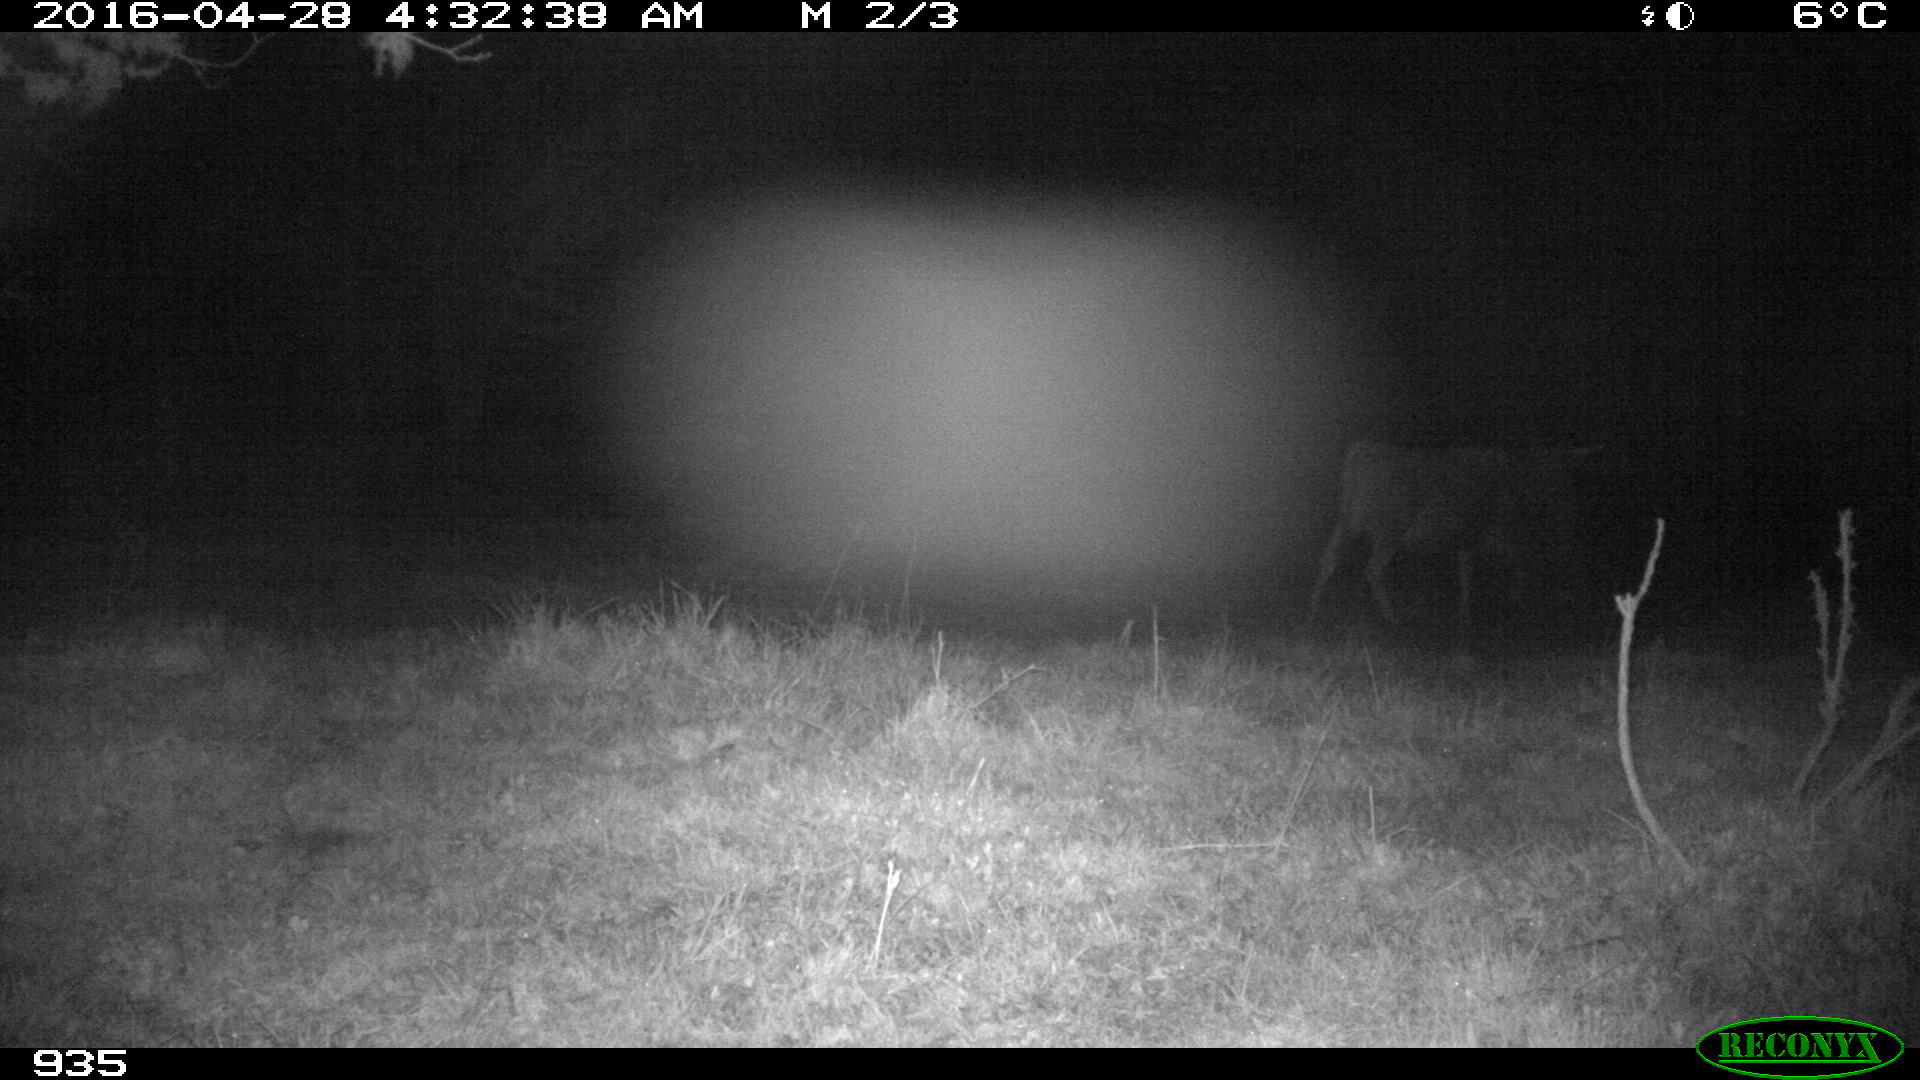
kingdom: Animalia
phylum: Chordata
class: Mammalia
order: Artiodactyla
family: Bovidae
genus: Bos
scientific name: Bos taurus
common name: Domesticated cattle
